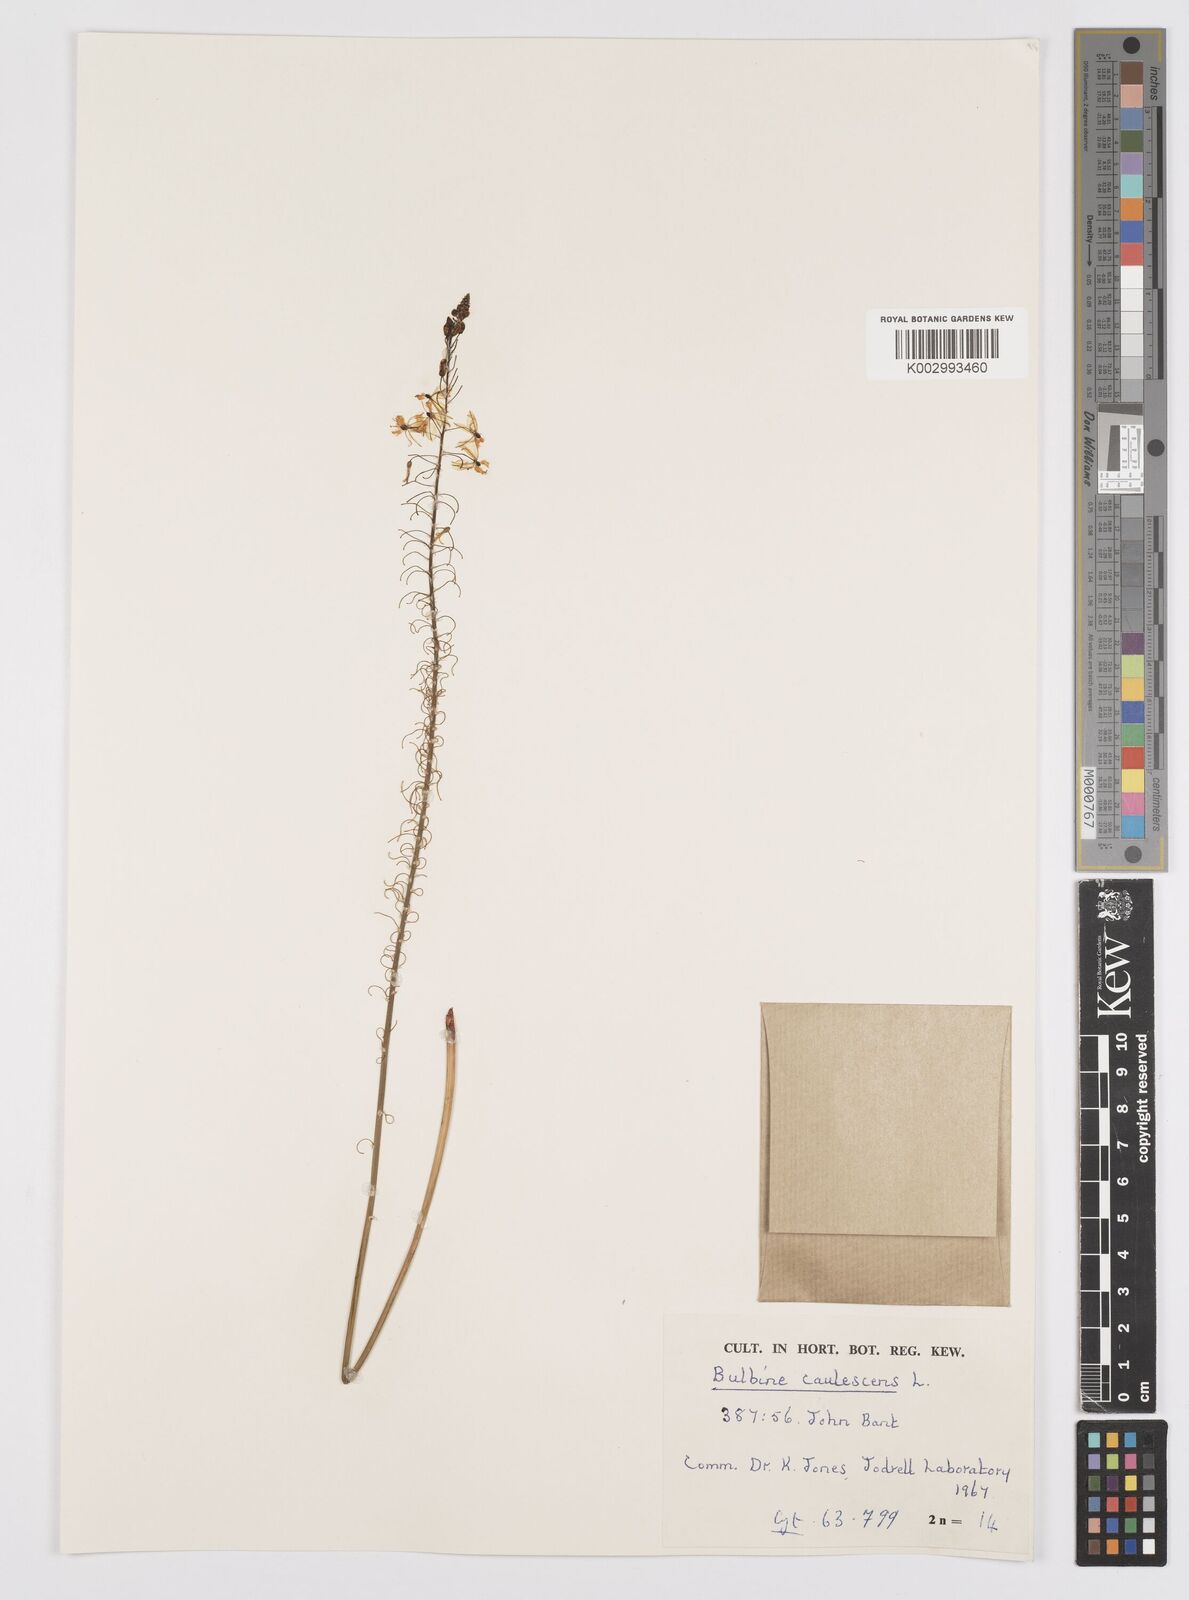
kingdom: Plantae
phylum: Tracheophyta
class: Liliopsida
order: Asparagales
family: Asphodelaceae
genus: Bulbine
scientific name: Bulbine frutescens
